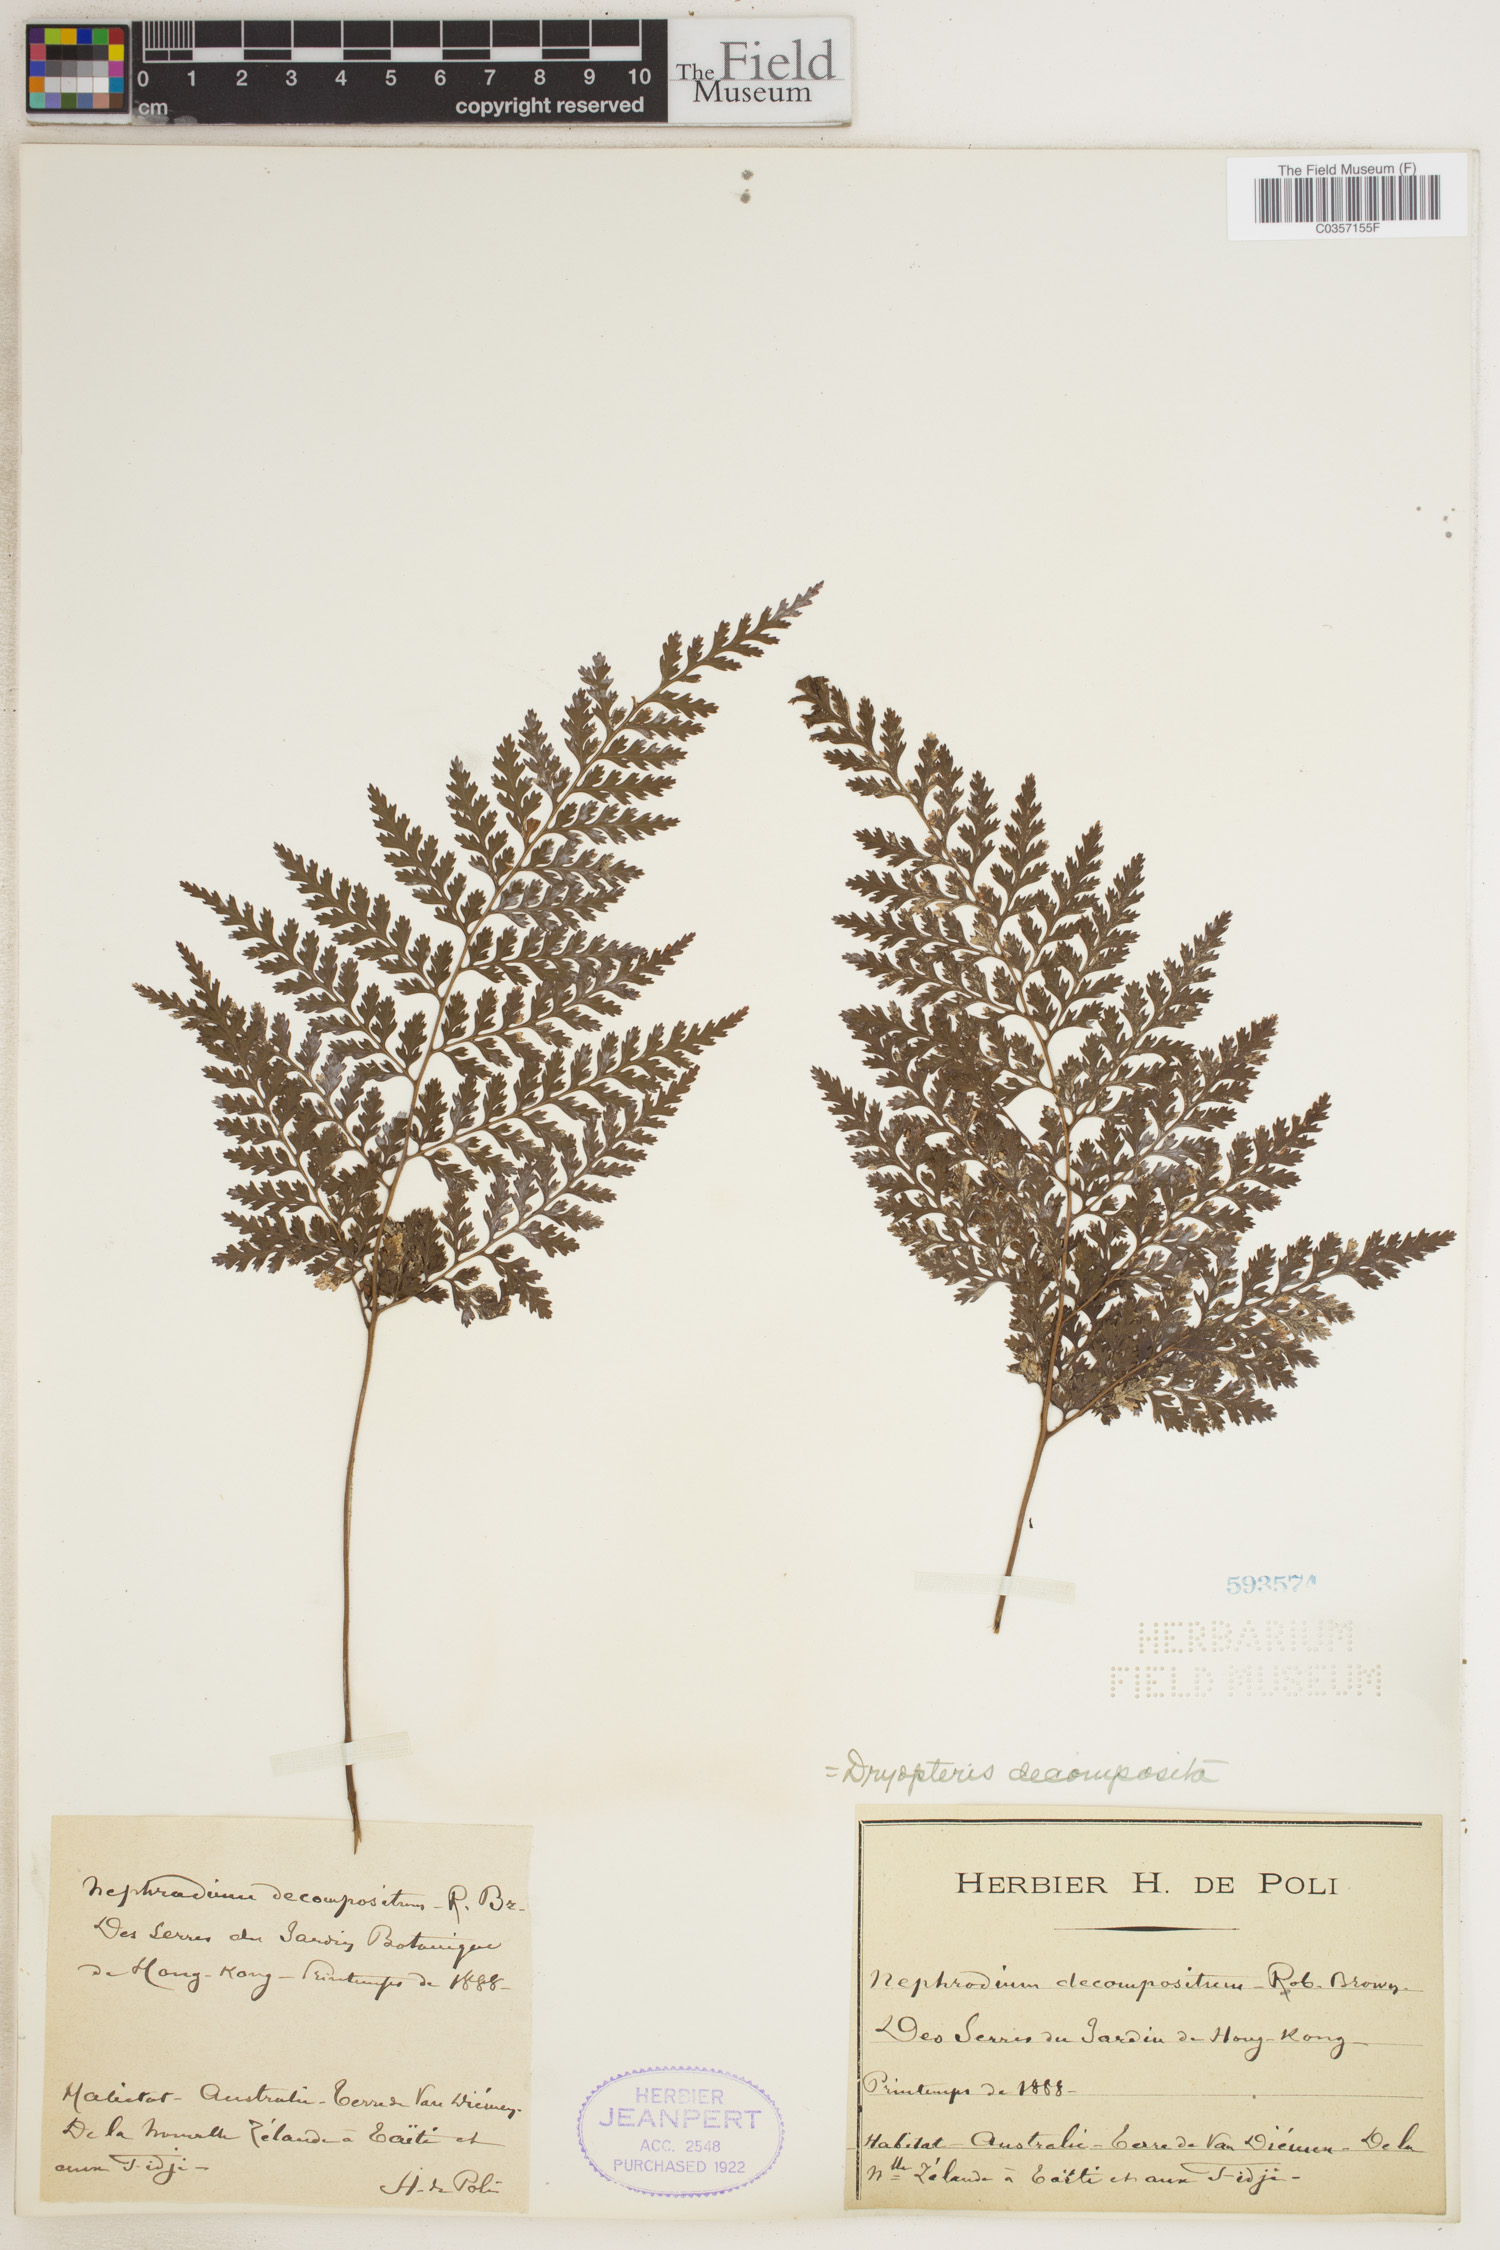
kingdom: Plantae
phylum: Tracheophyta
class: Polypodiopsida
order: Polypodiales
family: Dryopteridaceae
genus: Lastreopsis
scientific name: Lastreopsis decomposita
